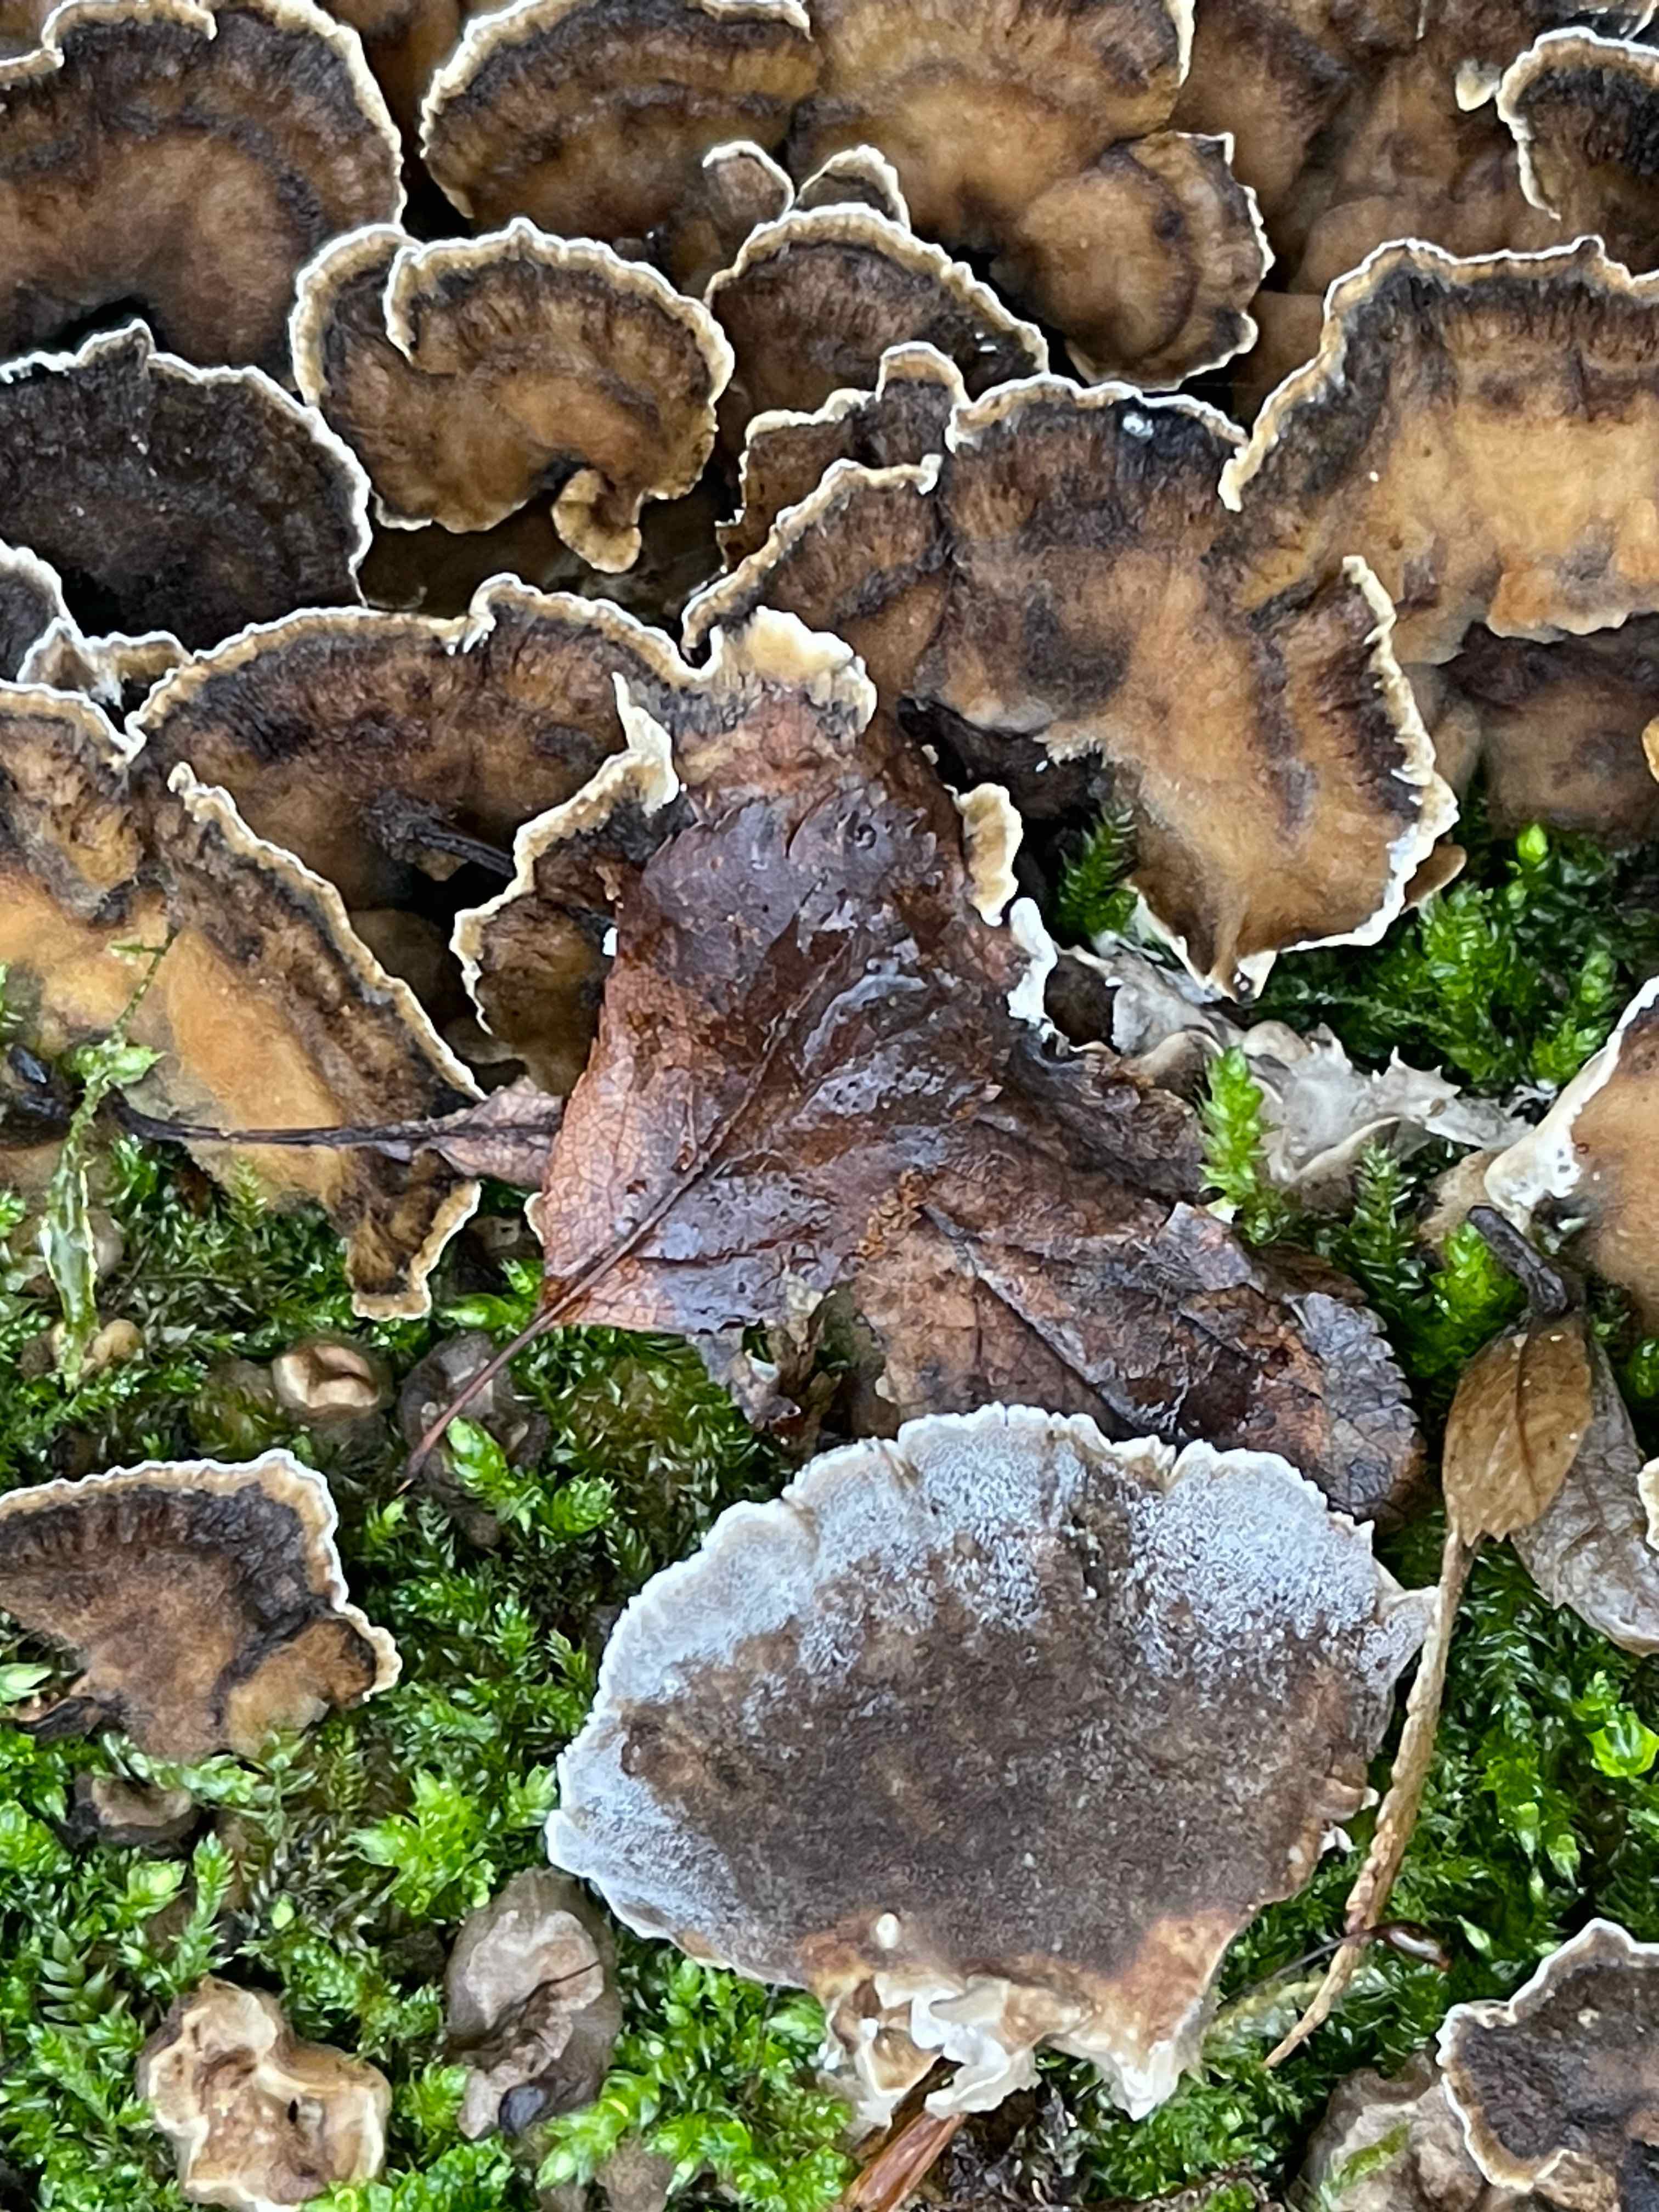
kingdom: Fungi
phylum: Basidiomycota
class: Agaricomycetes
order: Polyporales
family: Phanerochaetaceae
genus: Bjerkandera
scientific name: Bjerkandera adusta
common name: sveden sodporesvamp
